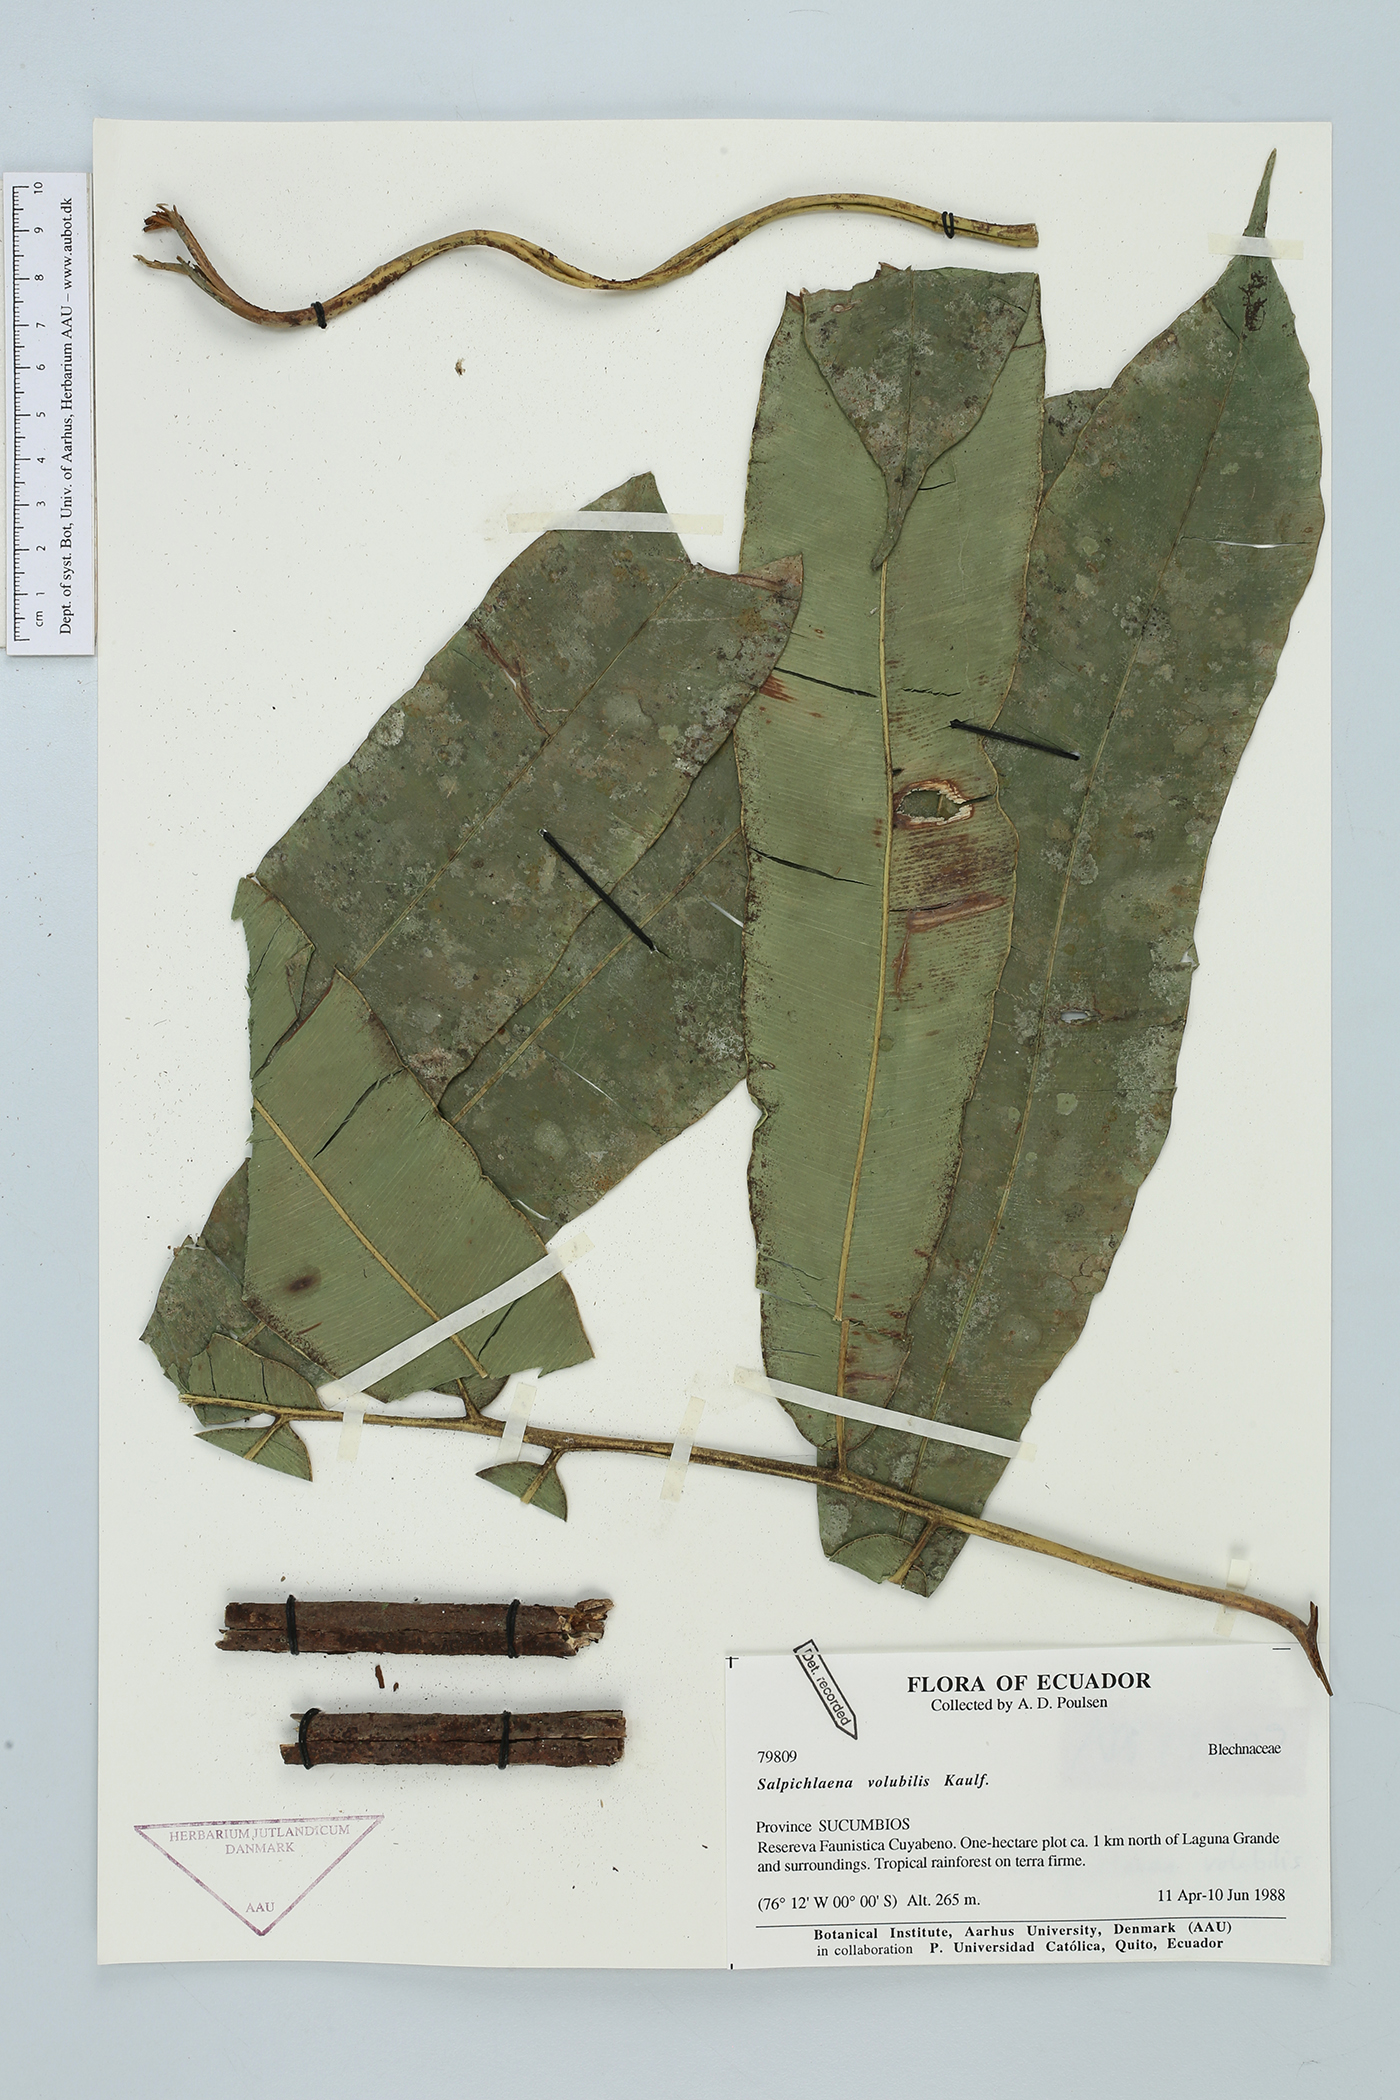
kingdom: Plantae
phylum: Tracheophyta
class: Polypodiopsida
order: Polypodiales
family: Blechnaceae
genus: Salpichlaena
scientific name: Salpichlaena volubilis
